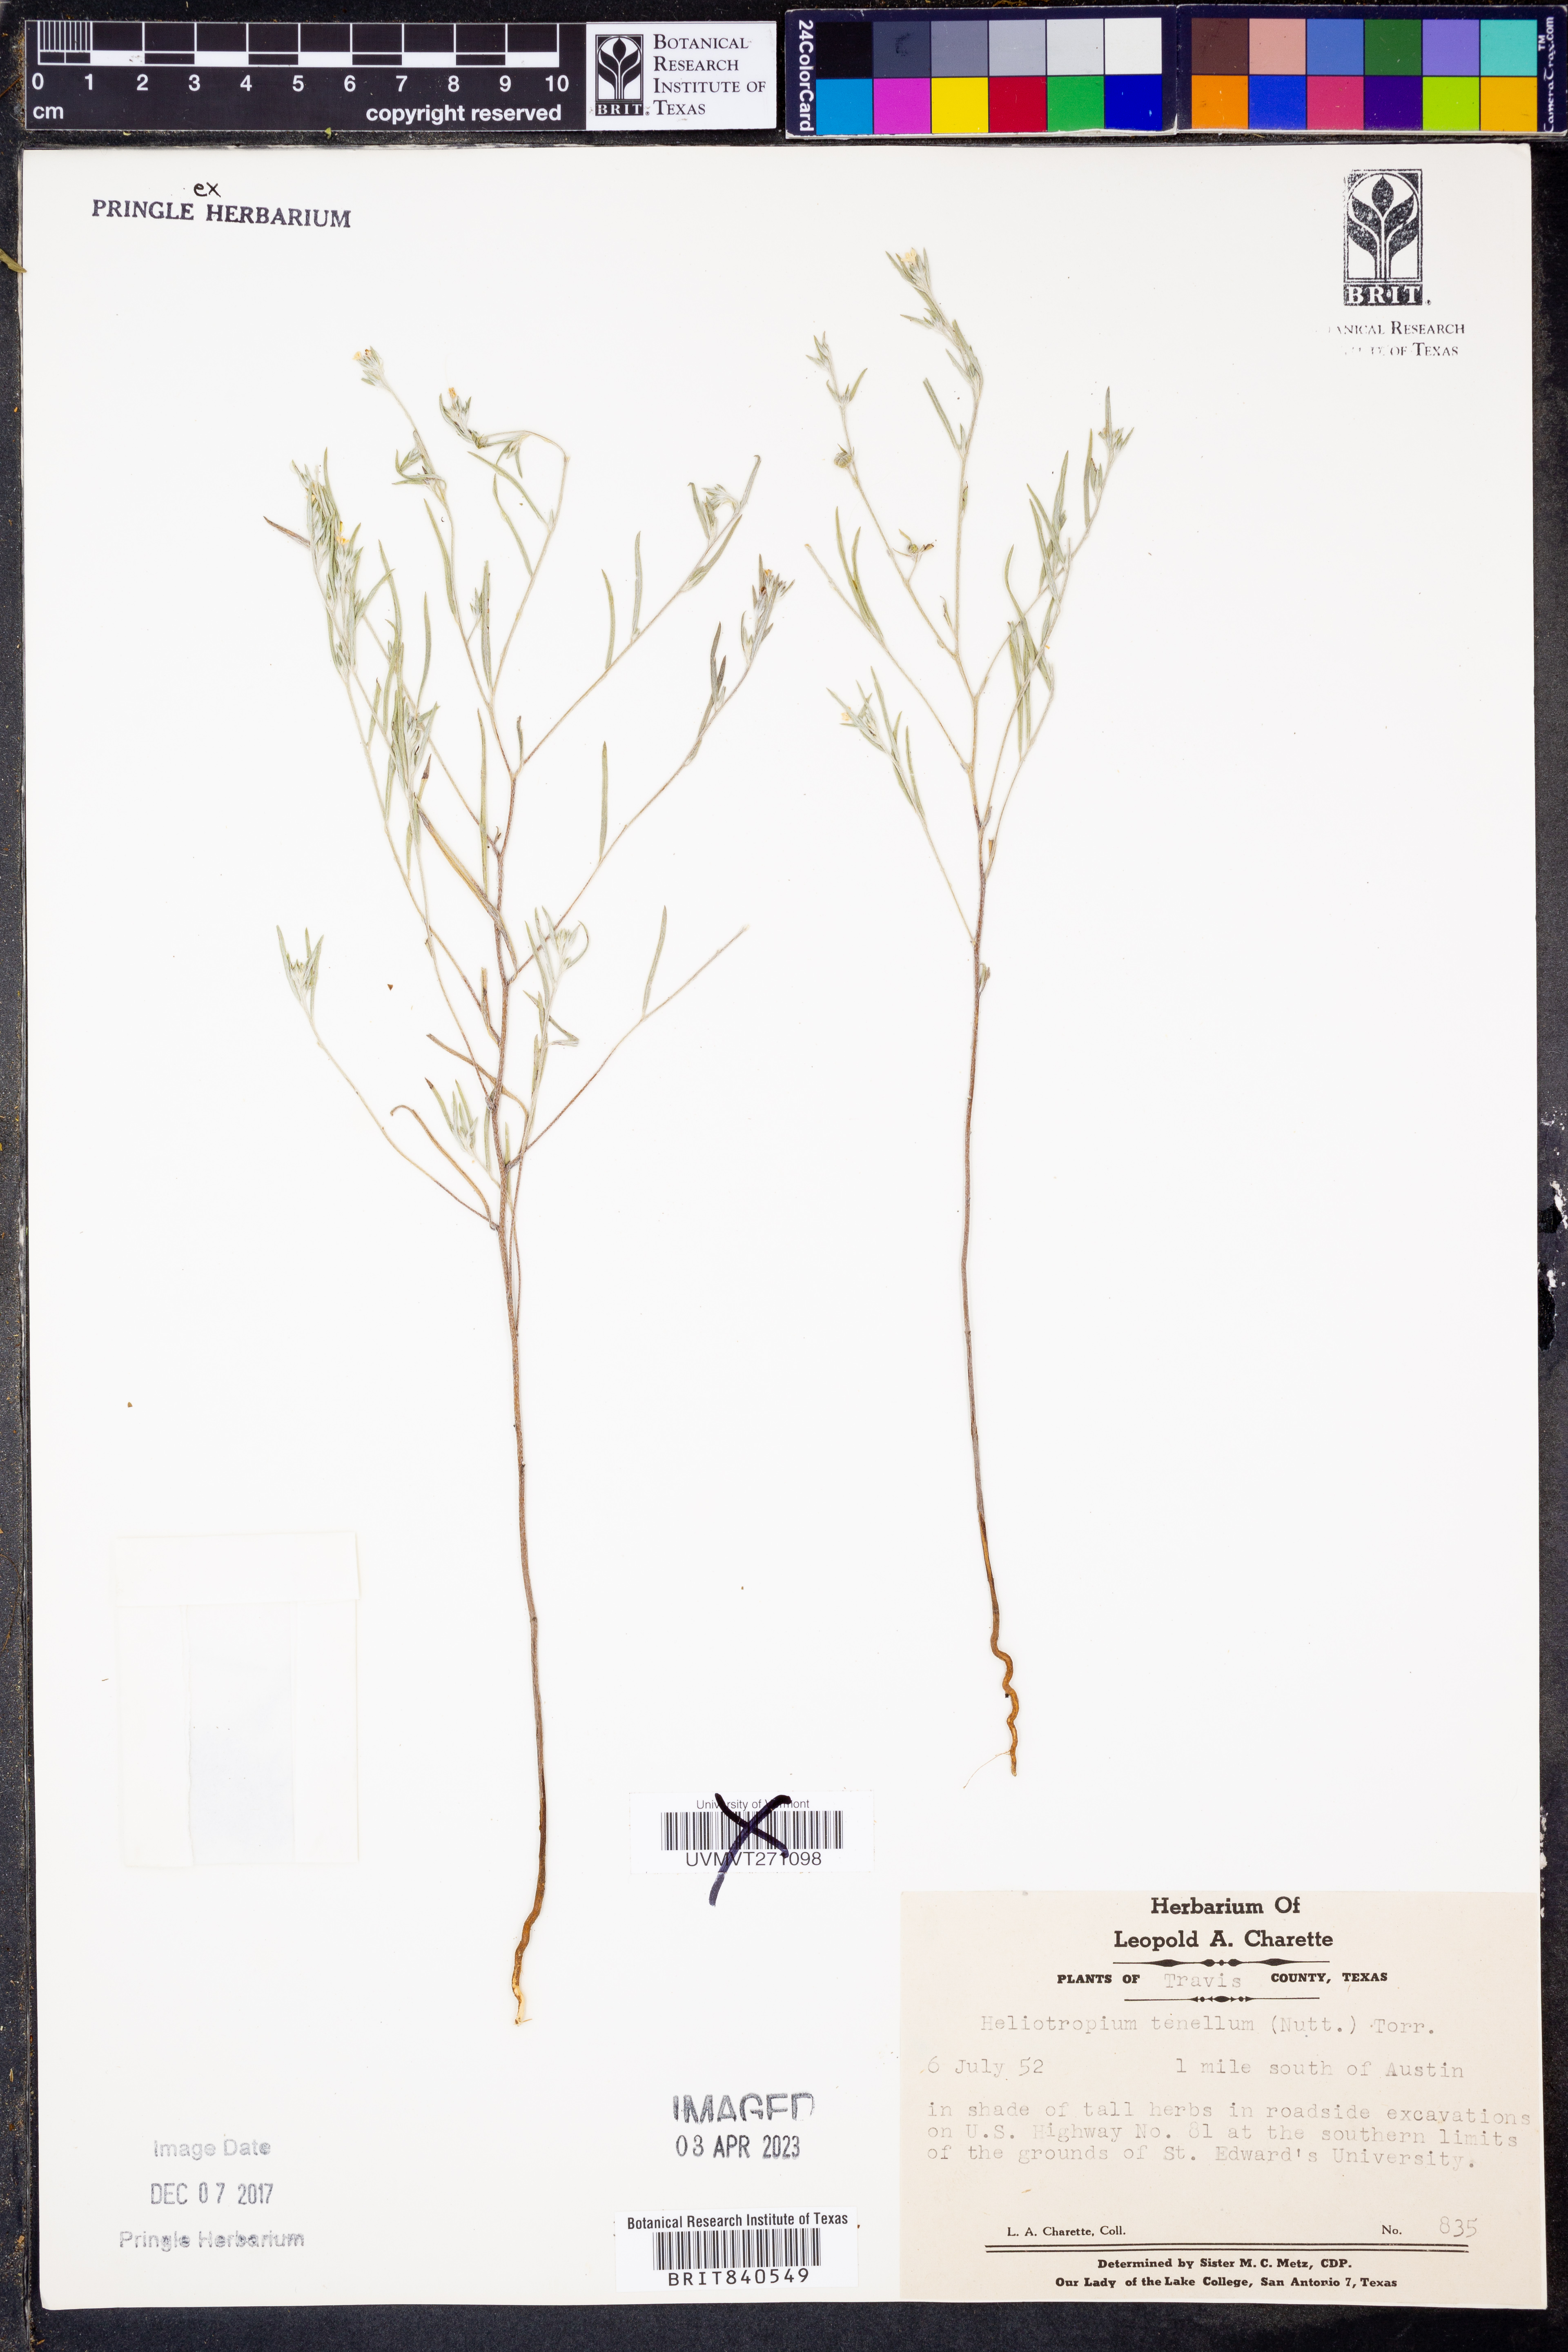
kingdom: Plantae
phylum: Tracheophyta
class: Magnoliopsida
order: Boraginales
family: Heliotropiaceae
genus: Euploca
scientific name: Euploca tenella
